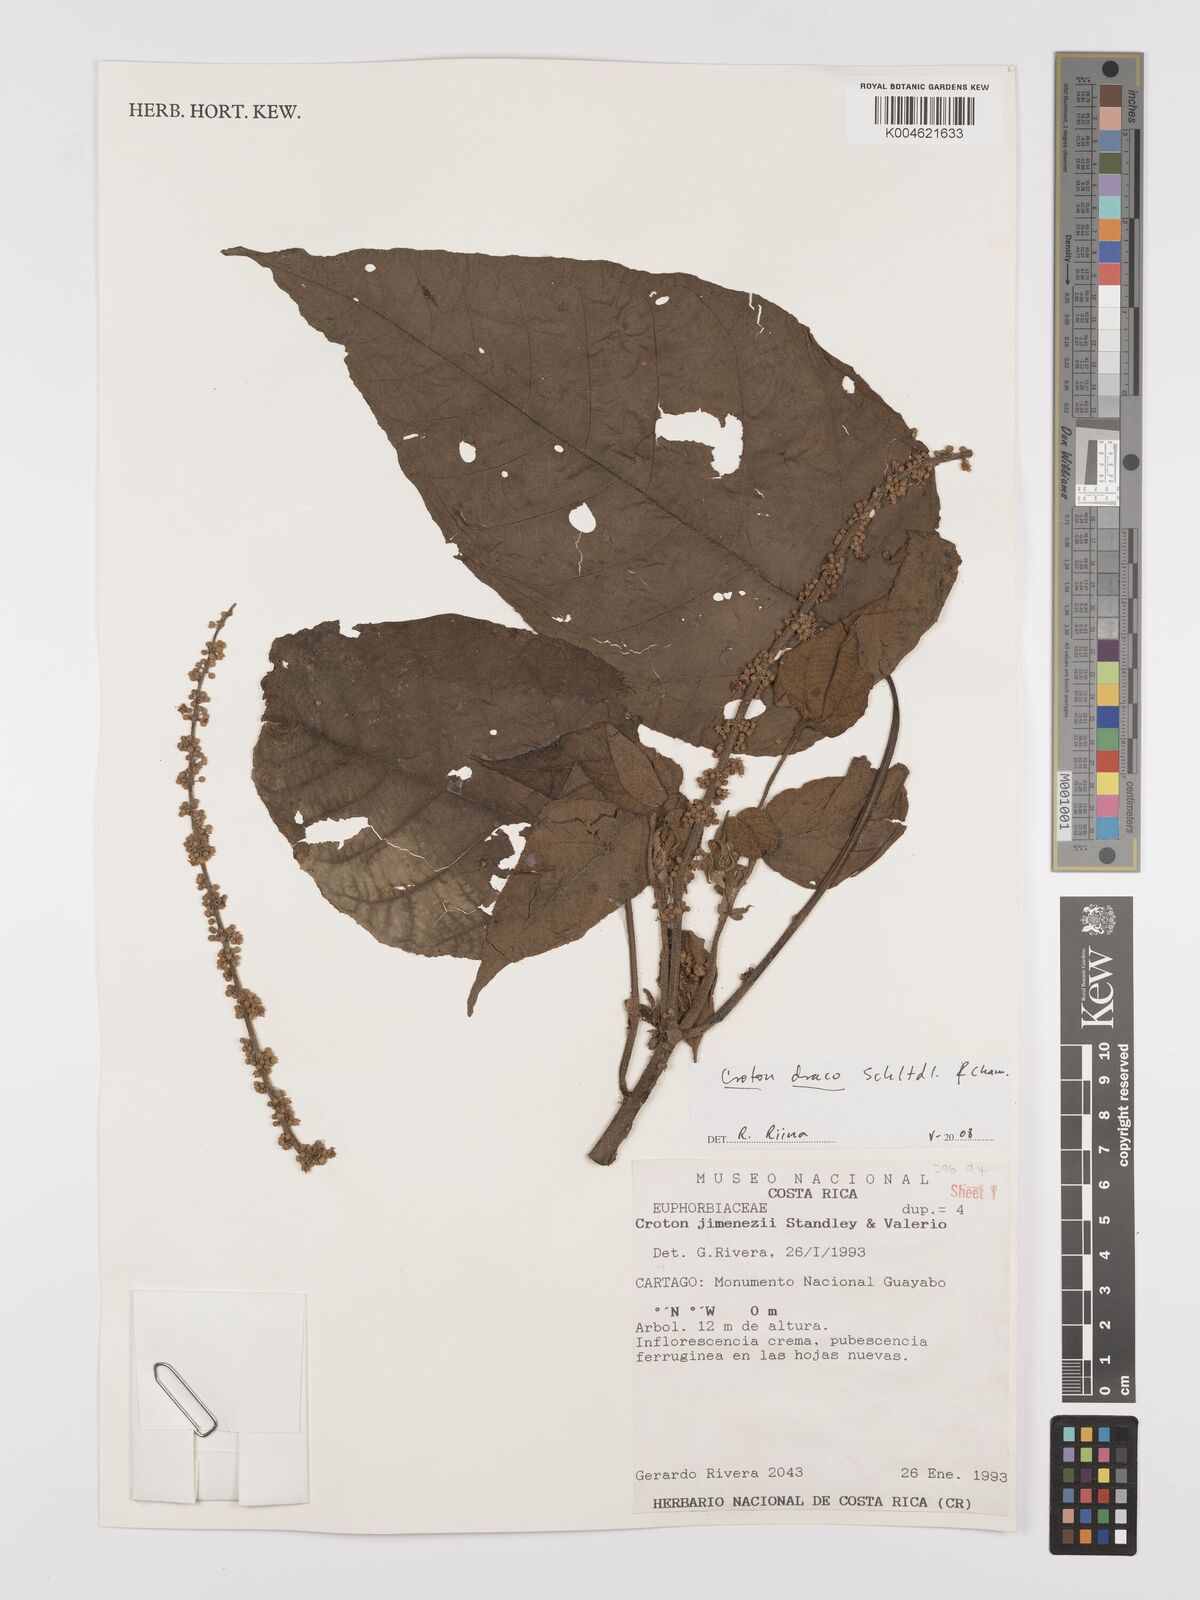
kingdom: Plantae
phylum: Tracheophyta
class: Magnoliopsida
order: Malpighiales
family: Euphorbiaceae
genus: Croton
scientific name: Croton draco
